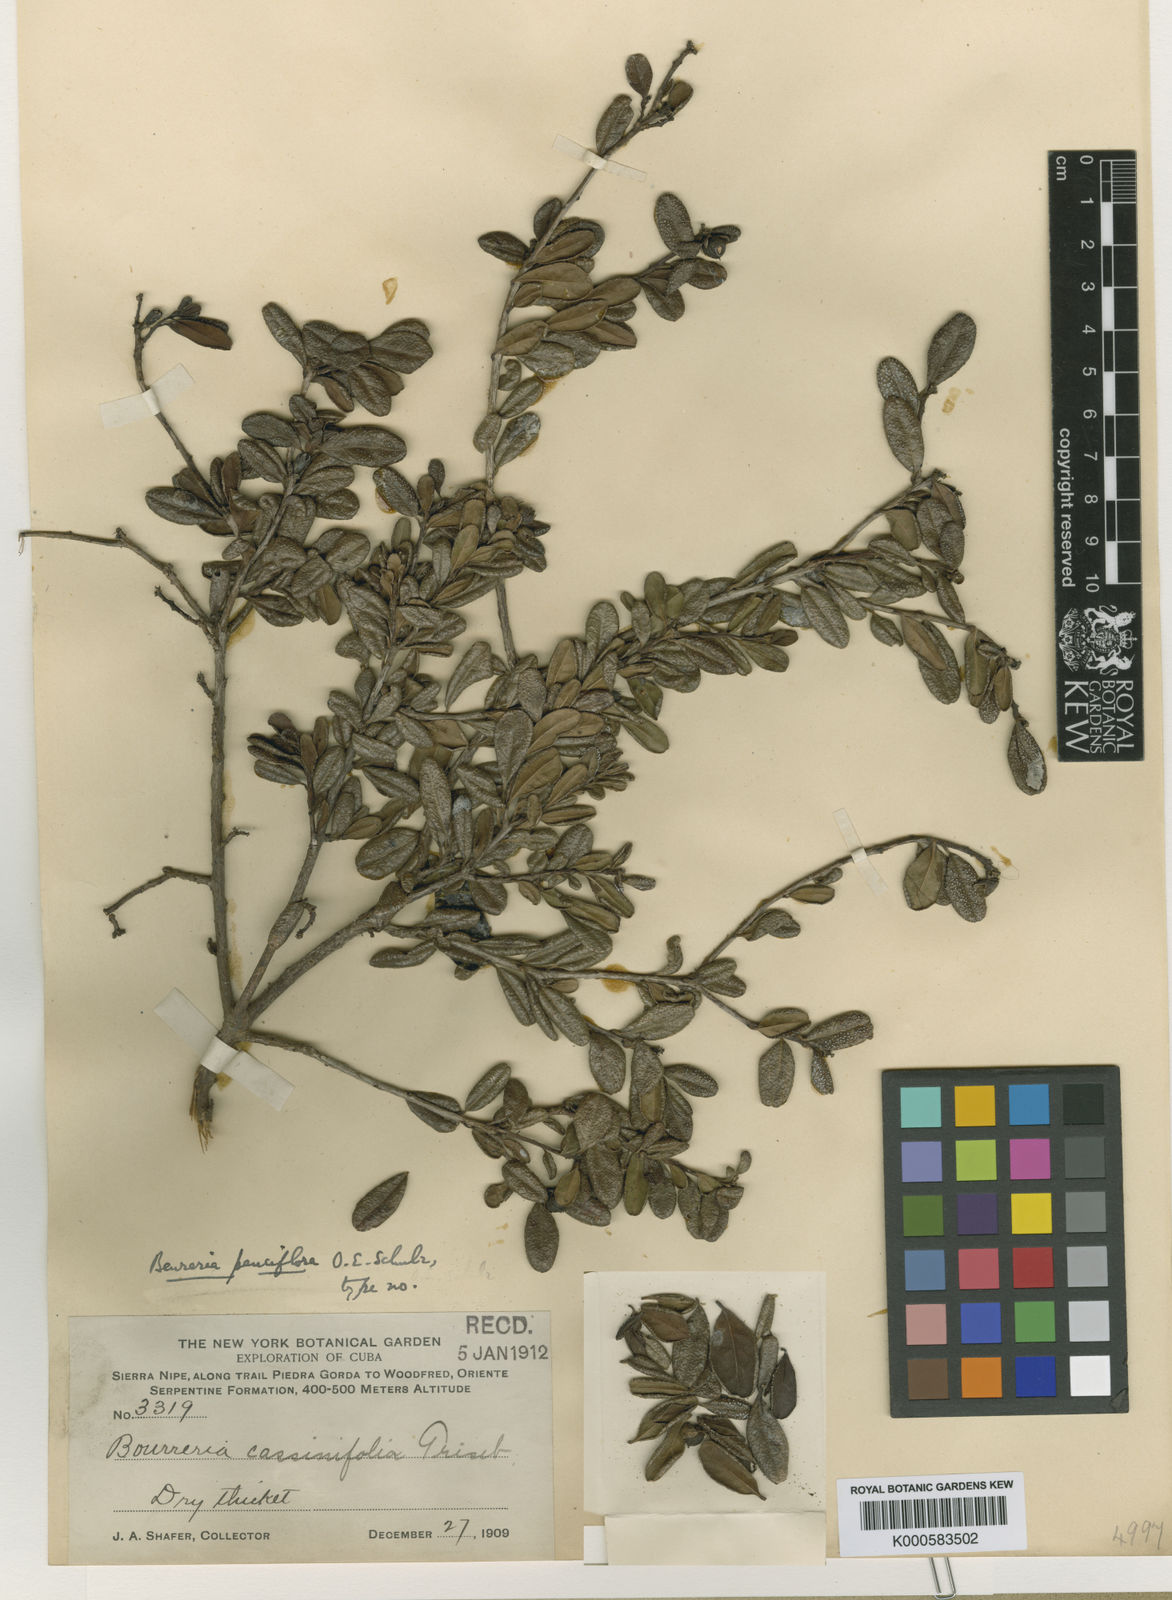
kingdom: Plantae
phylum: Tracheophyta
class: Magnoliopsida
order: Boraginales
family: Ehretiaceae
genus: Bourreria
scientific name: Bourreria tomentosa
